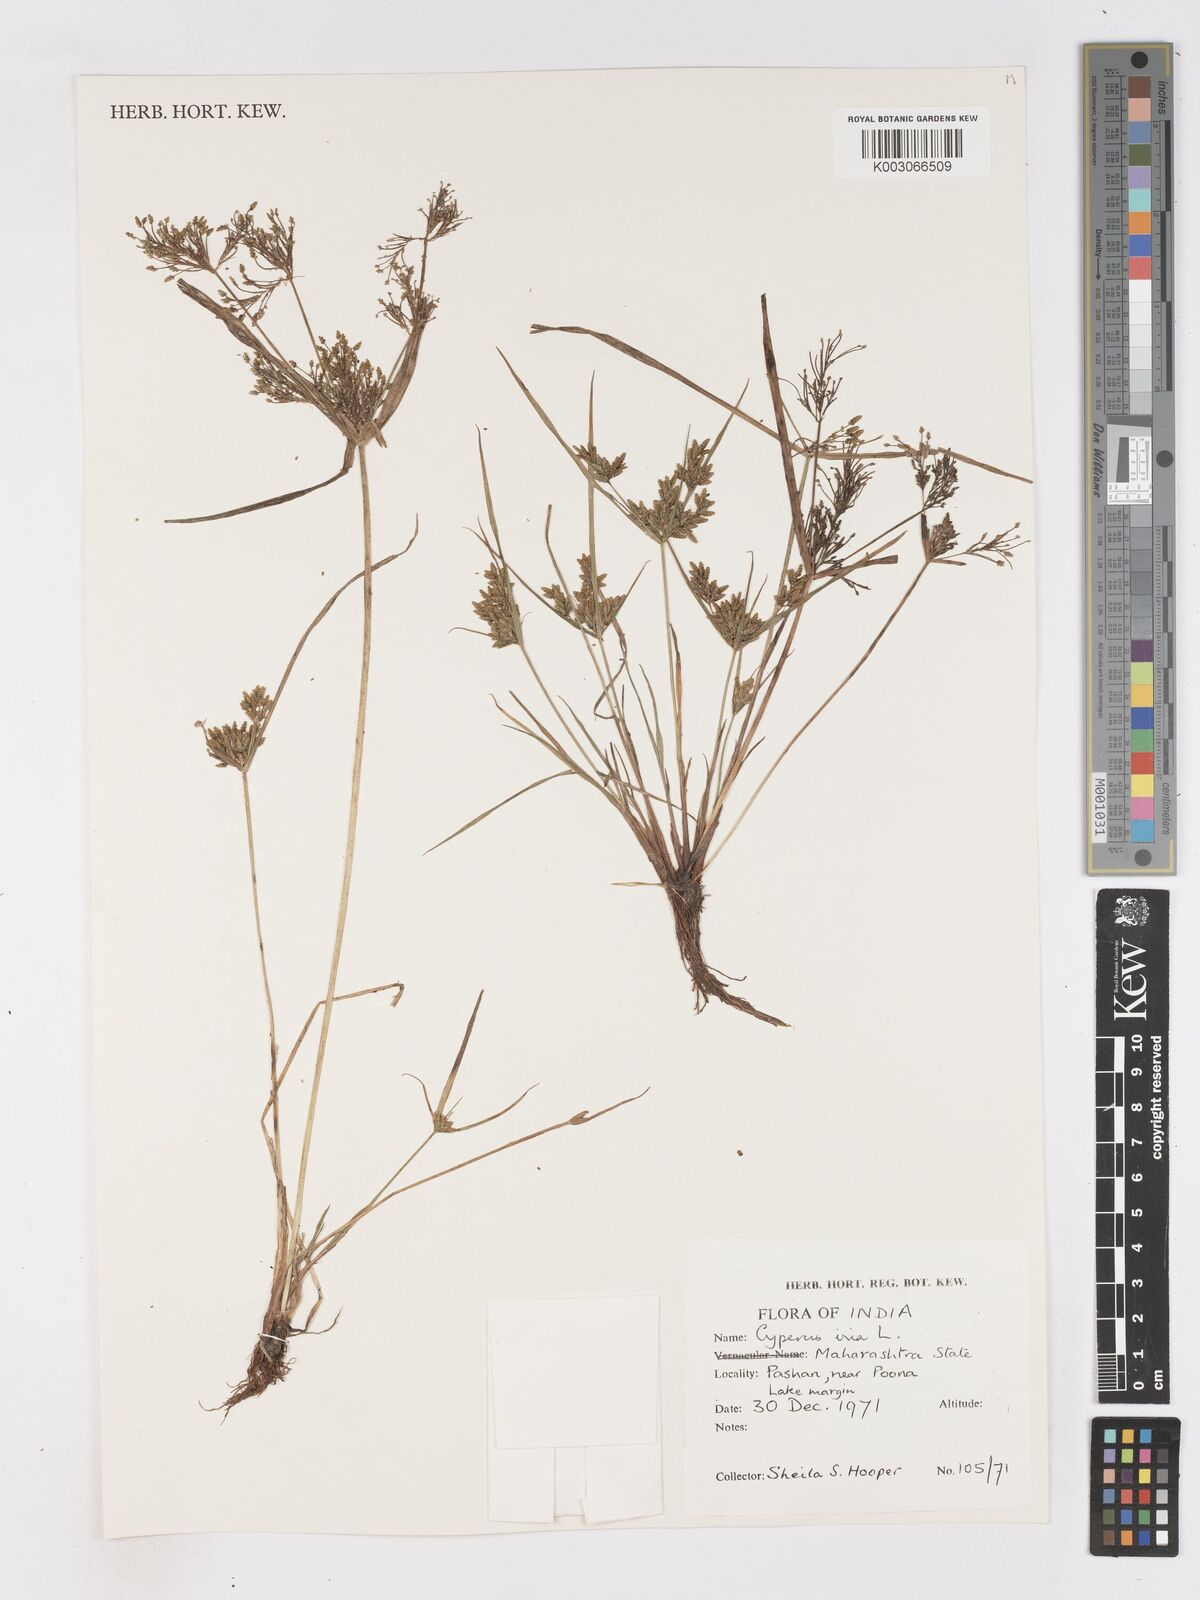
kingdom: Plantae
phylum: Tracheophyta
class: Liliopsida
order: Poales
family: Cyperaceae
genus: Cyperus
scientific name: Cyperus iria
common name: Ricefield flatsedge
